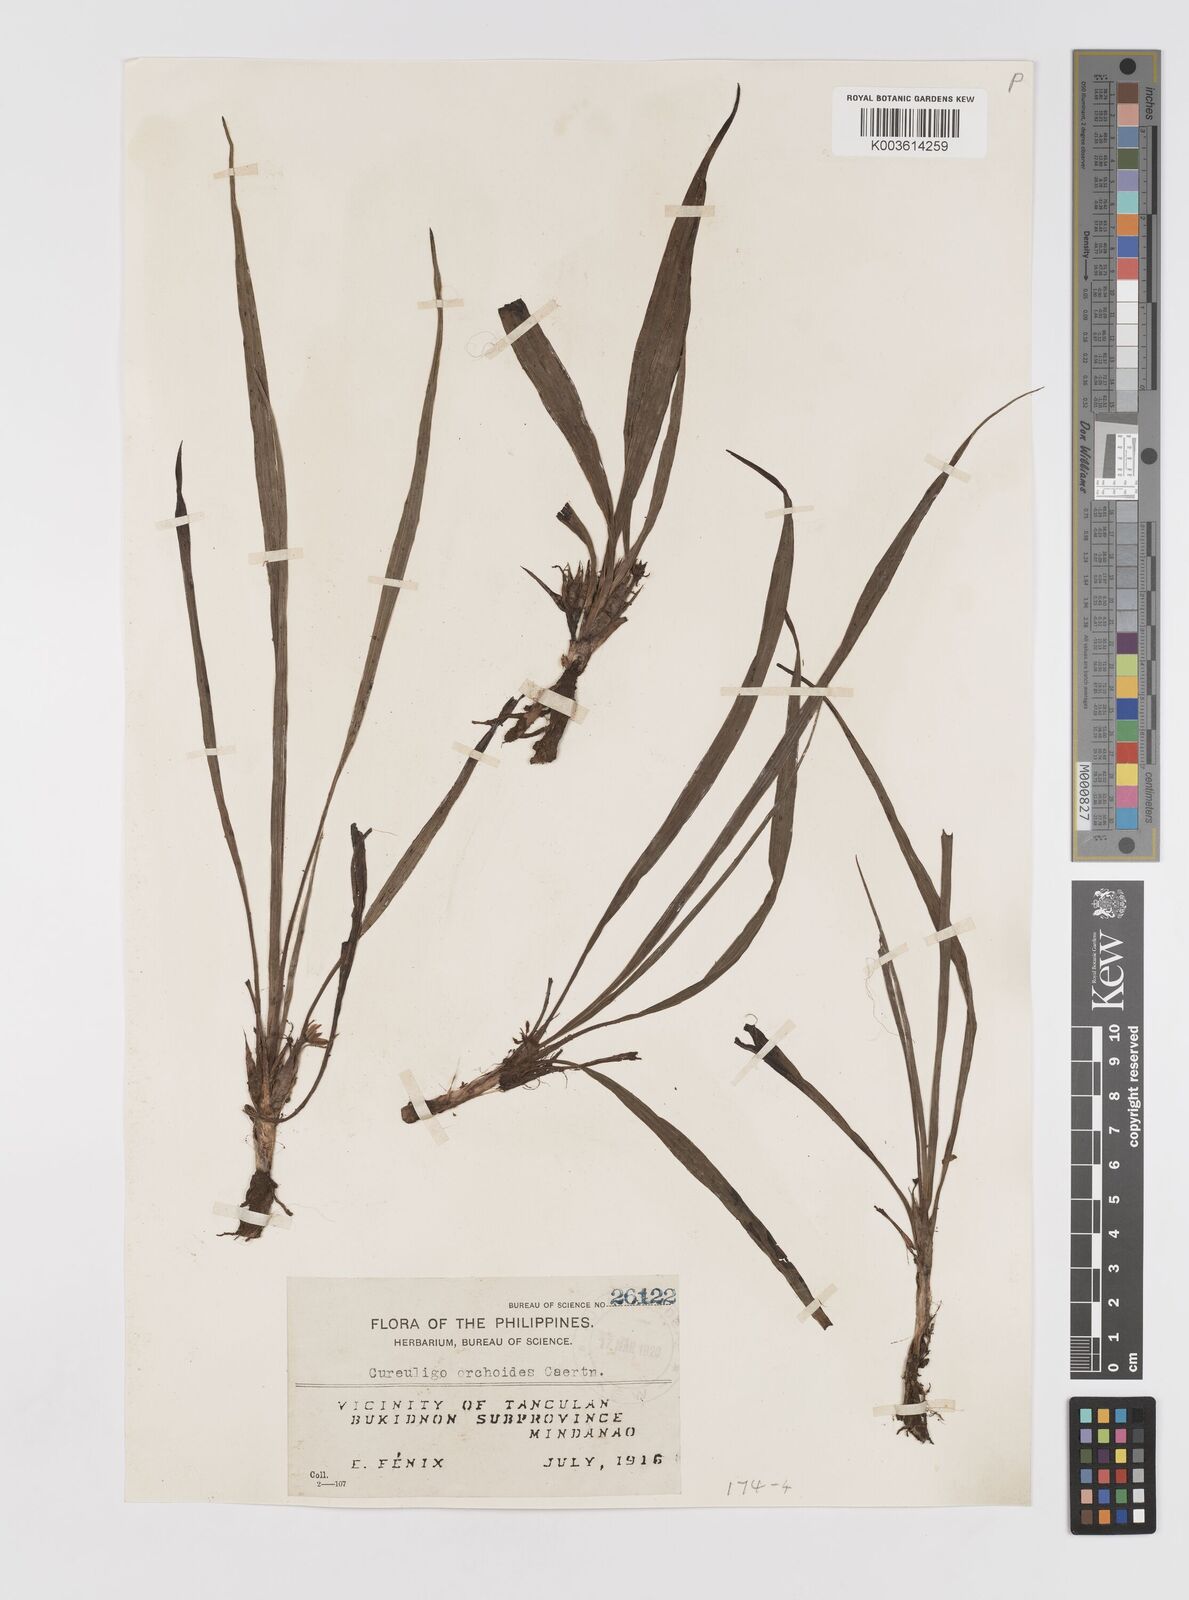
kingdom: Plantae
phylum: Tracheophyta
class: Liliopsida
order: Asparagales
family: Hypoxidaceae
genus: Curculigo
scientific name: Curculigo orchioides
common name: Golden eye-grass
